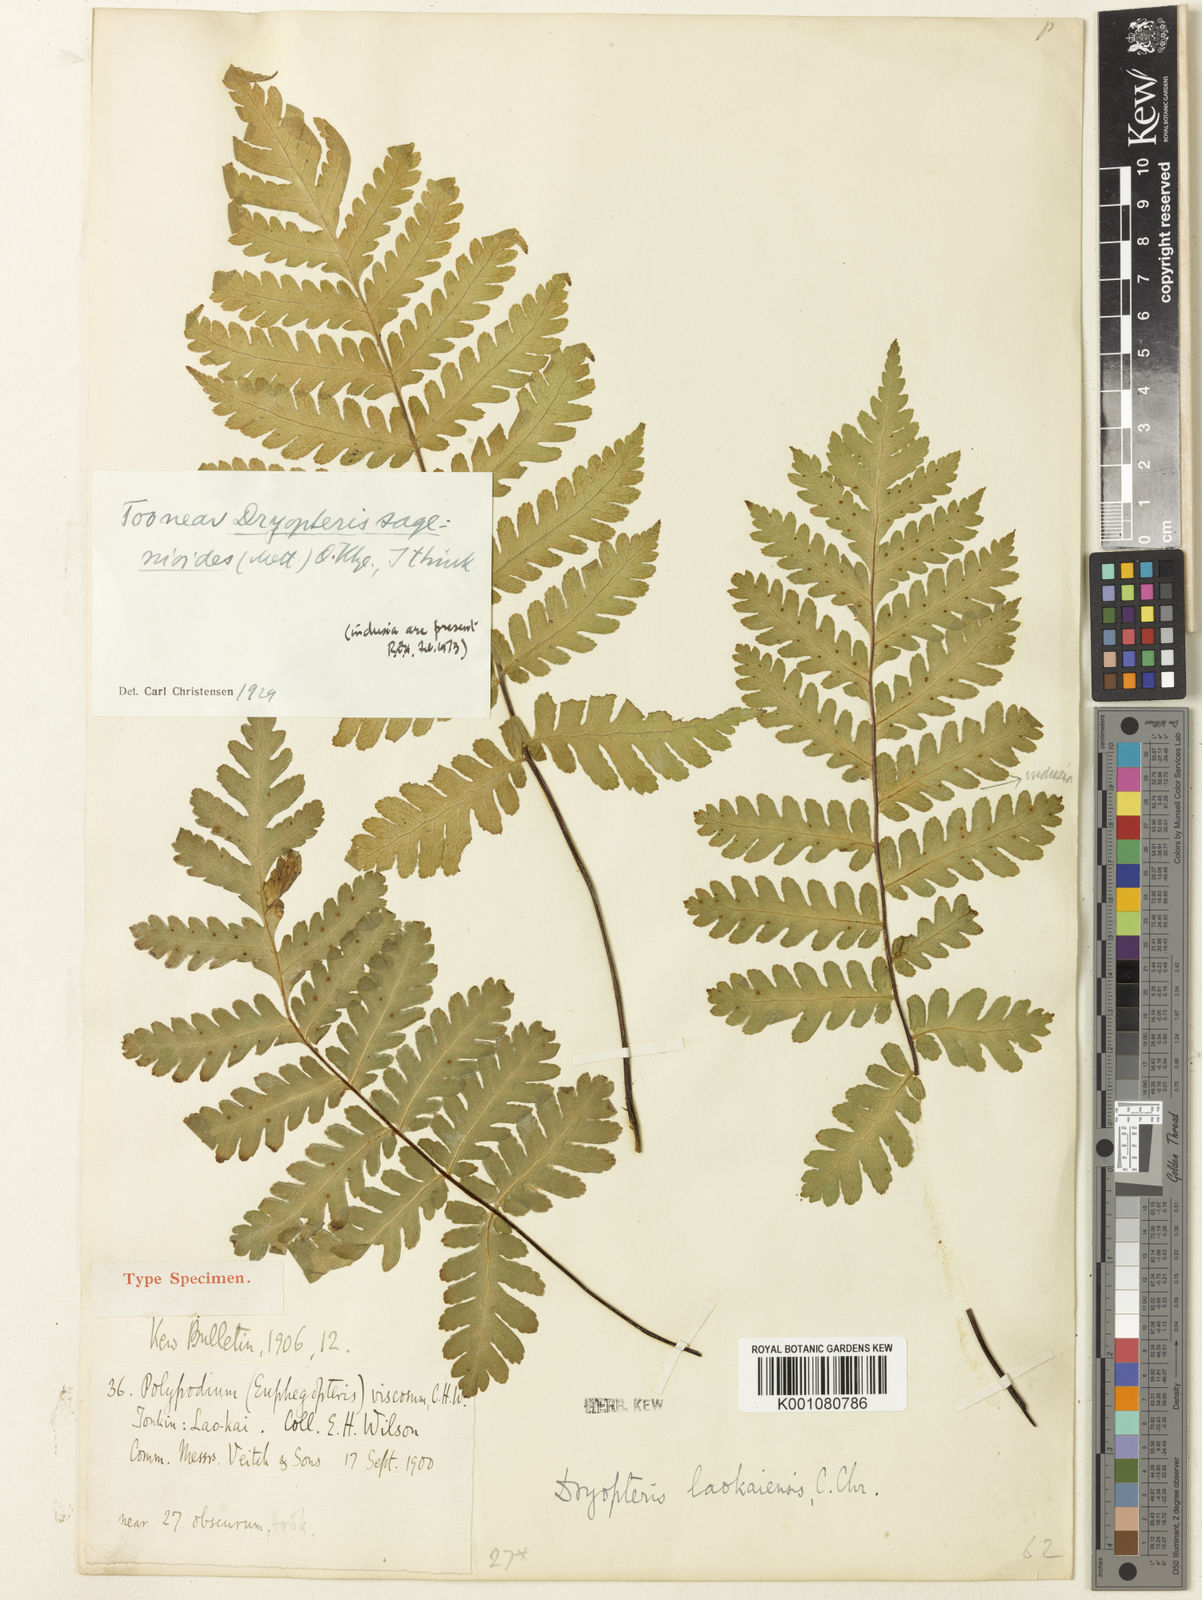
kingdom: Plantae
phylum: Tracheophyta
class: Polypodiopsida
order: Polypodiales
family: Tectariaceae
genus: Tectaria
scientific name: Tectaria sagenioides
